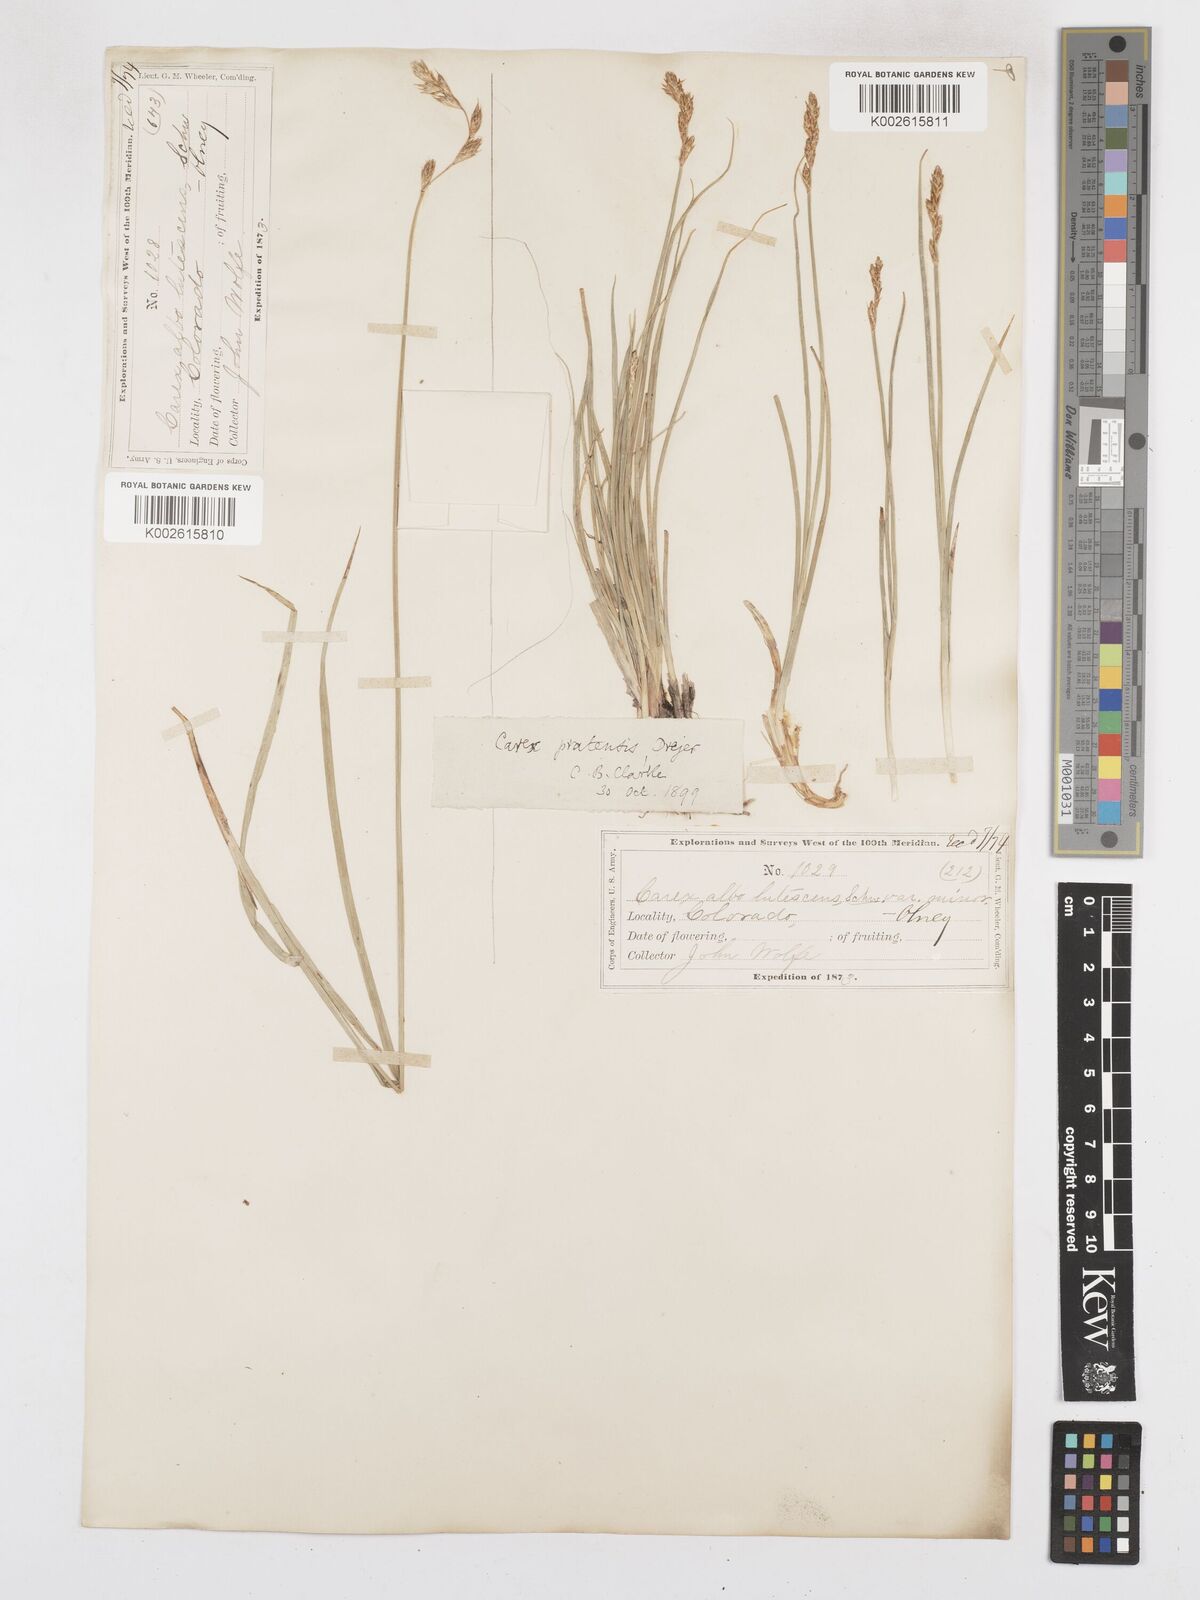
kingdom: Plantae
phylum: Tracheophyta
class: Liliopsida
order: Poales
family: Cyperaceae
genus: Carex
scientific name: Carex praticola
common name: Large-fruited oval sedge
